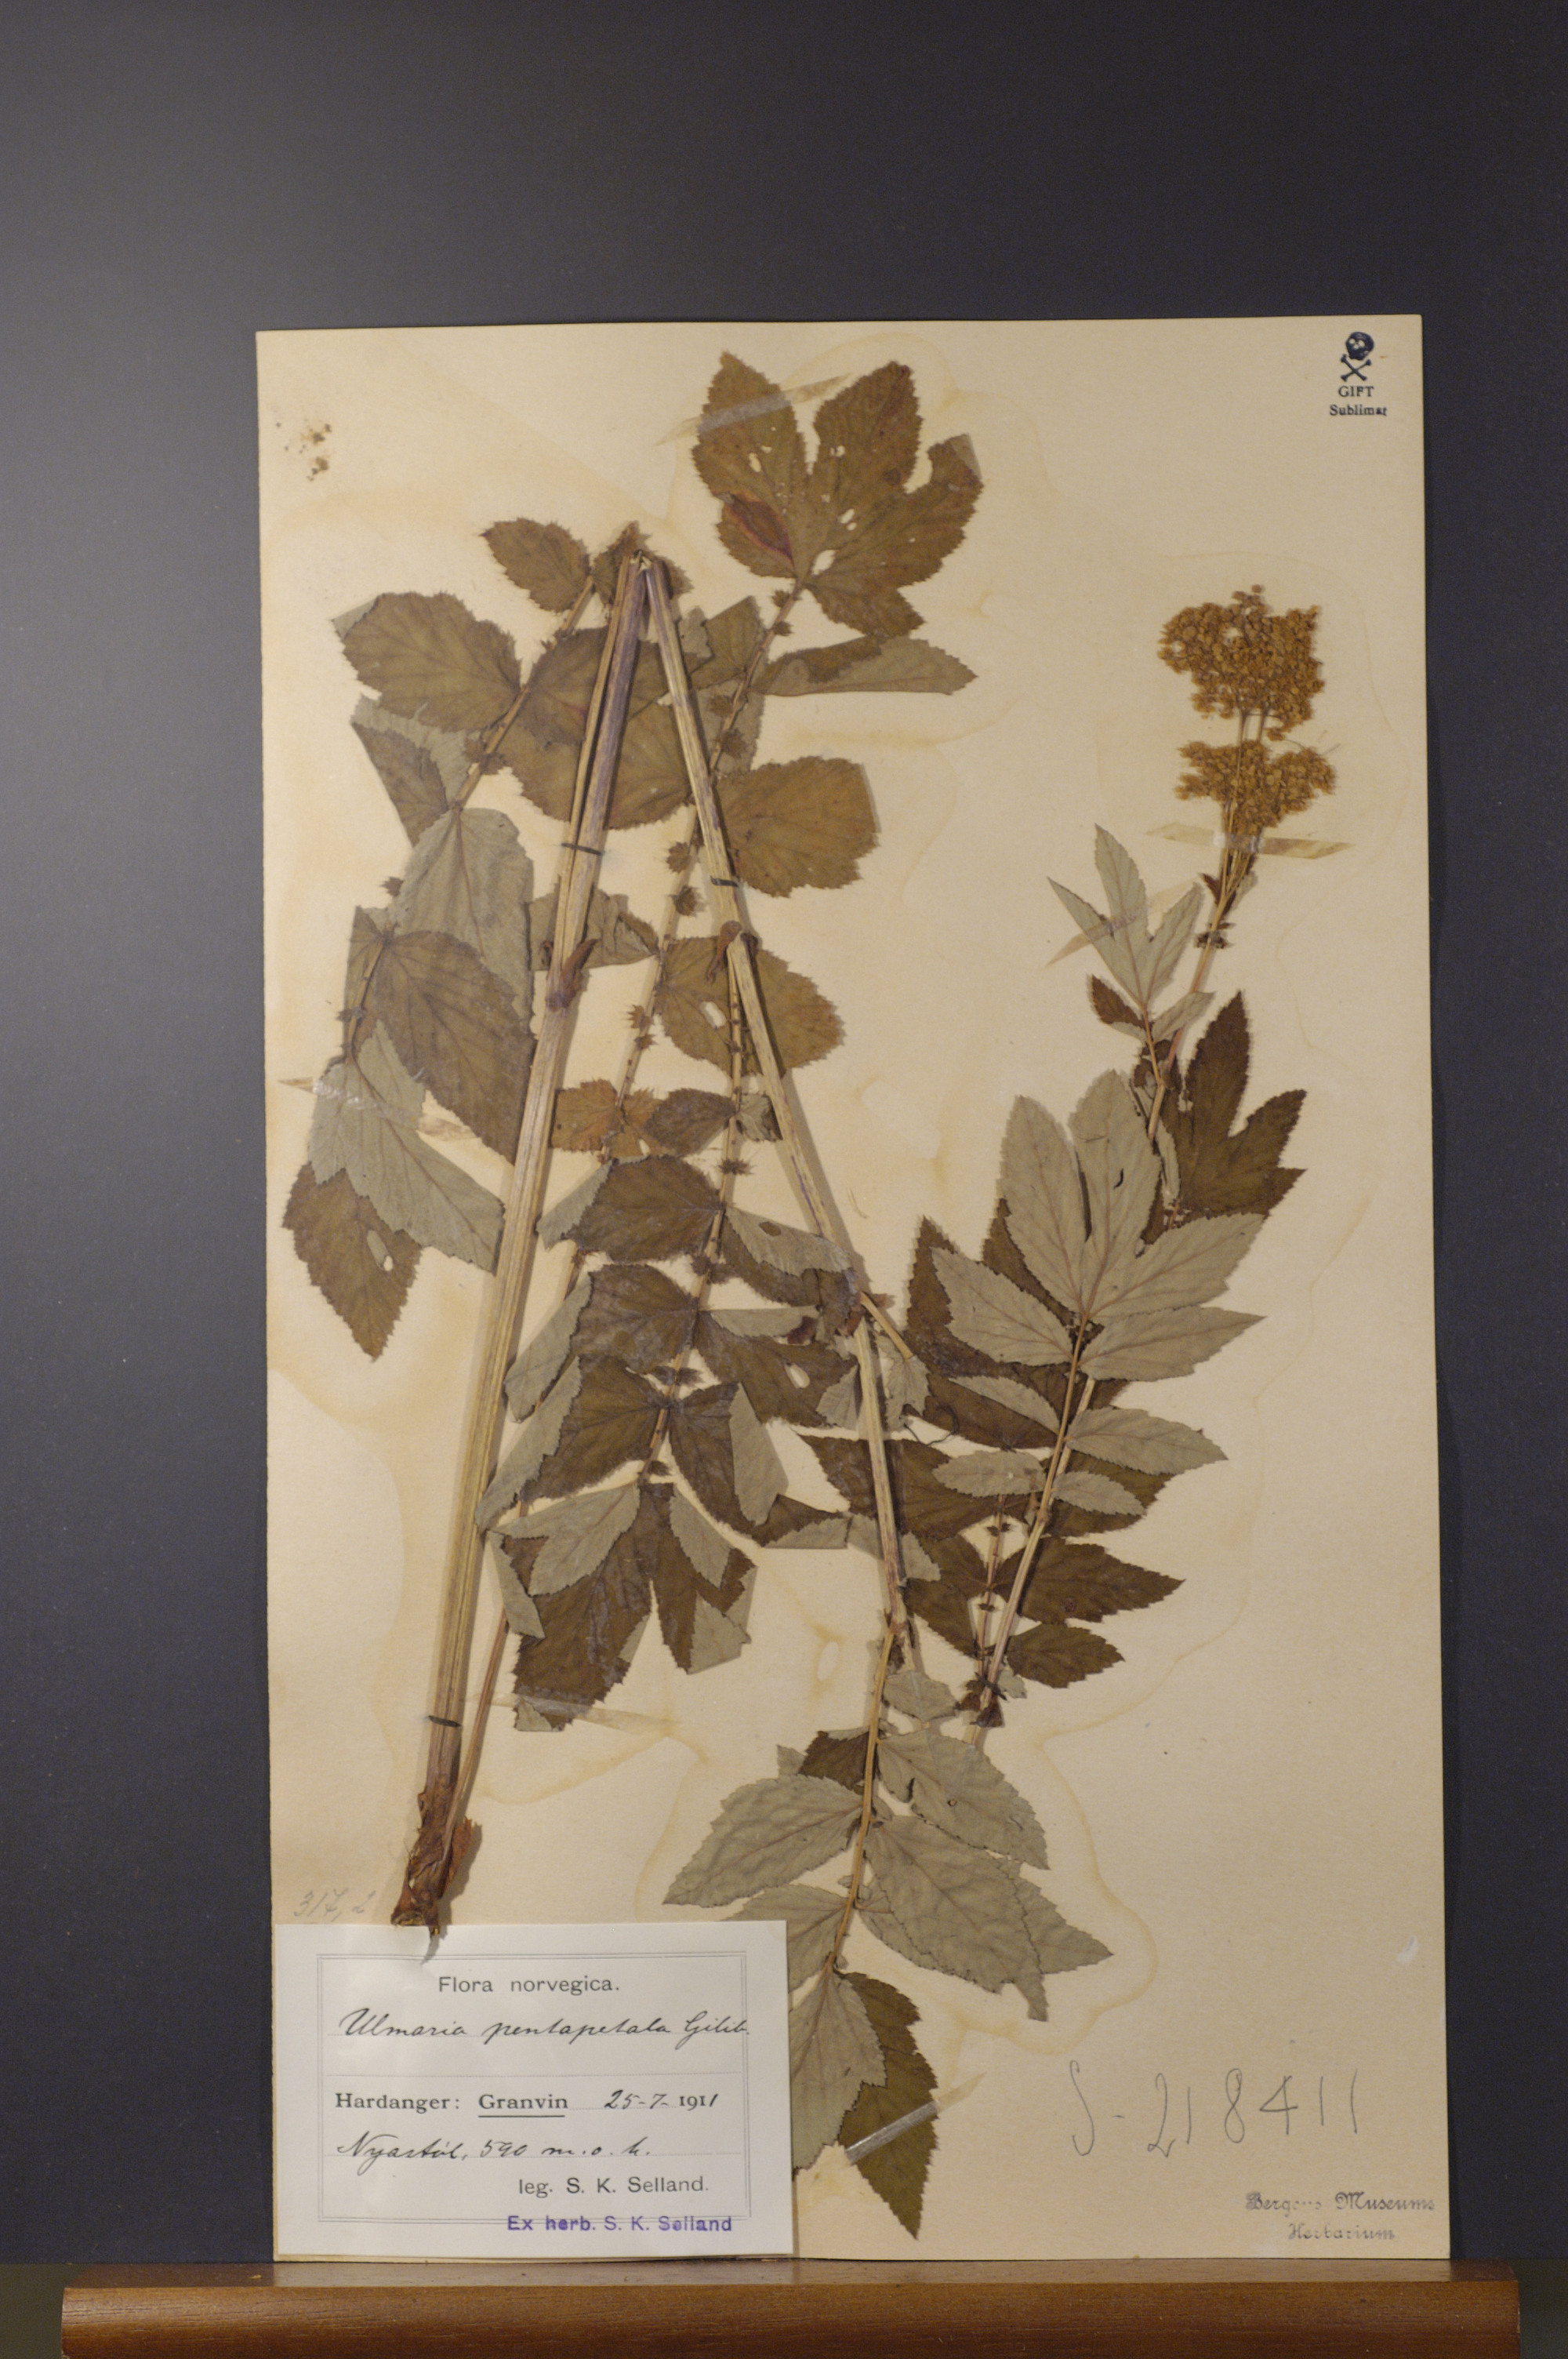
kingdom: Plantae
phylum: Tracheophyta
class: Magnoliopsida
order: Rosales
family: Rosaceae
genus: Filipendula
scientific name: Filipendula ulmaria
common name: Meadowsweet
